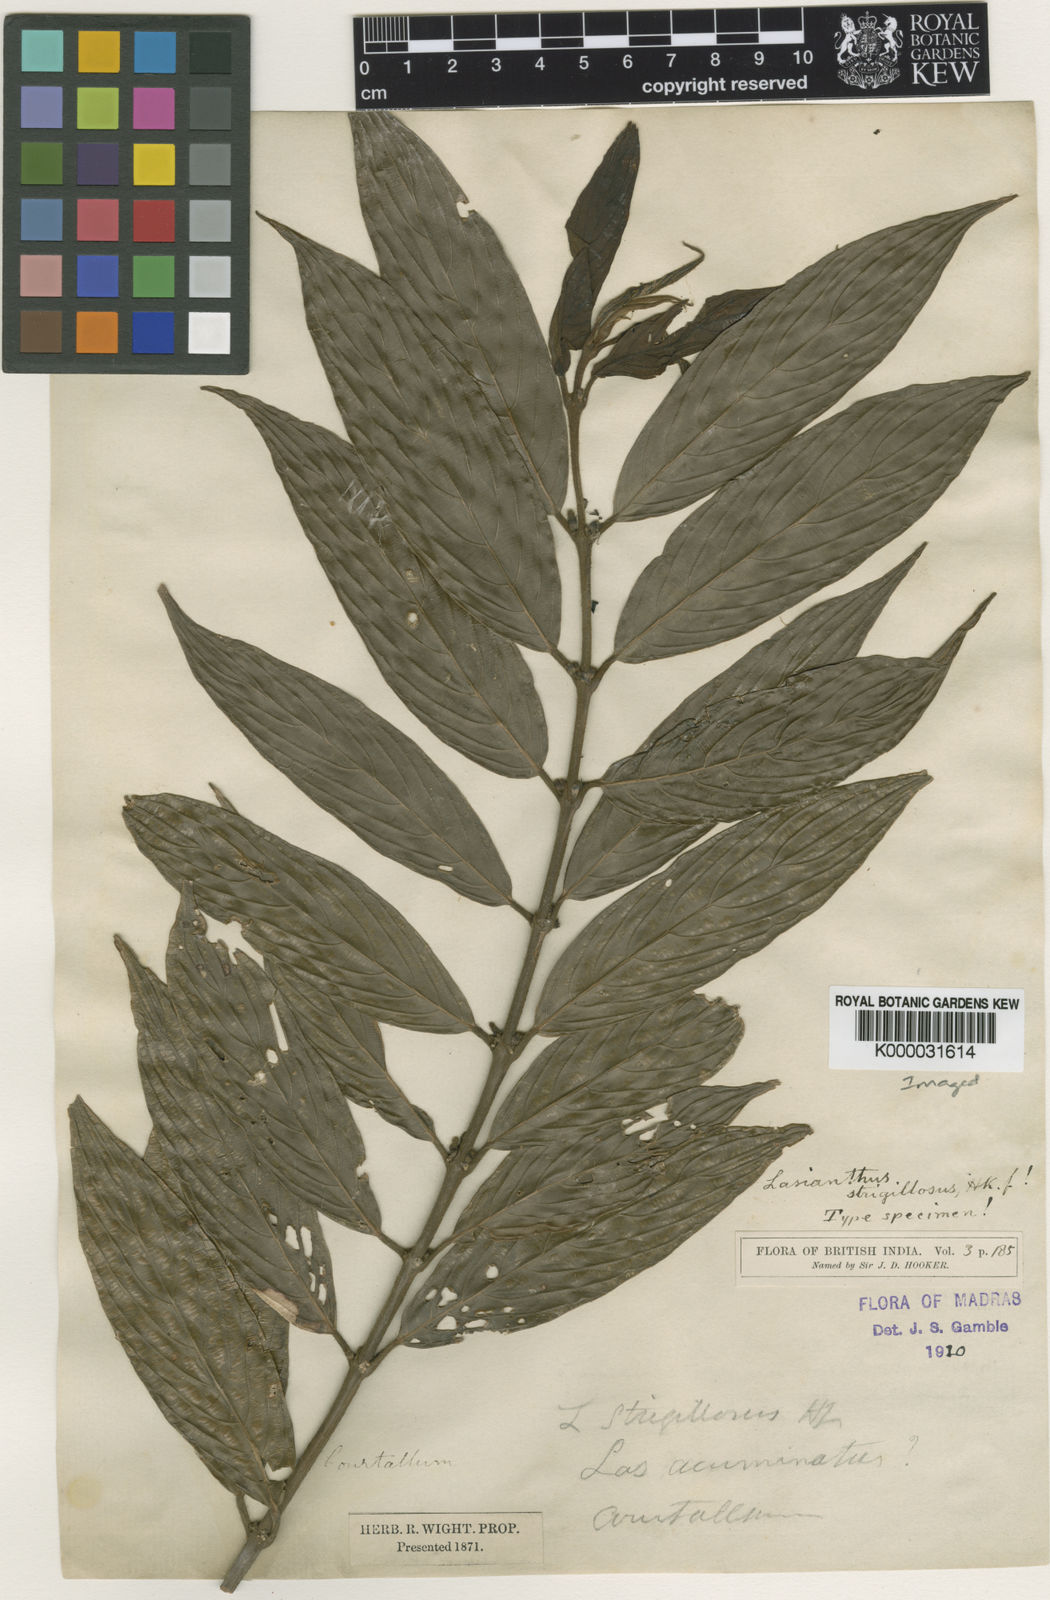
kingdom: Plantae
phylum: Tracheophyta
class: Magnoliopsida
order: Gentianales
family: Rubiaceae
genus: Lasianthus
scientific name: Lasianthus strigillosus
